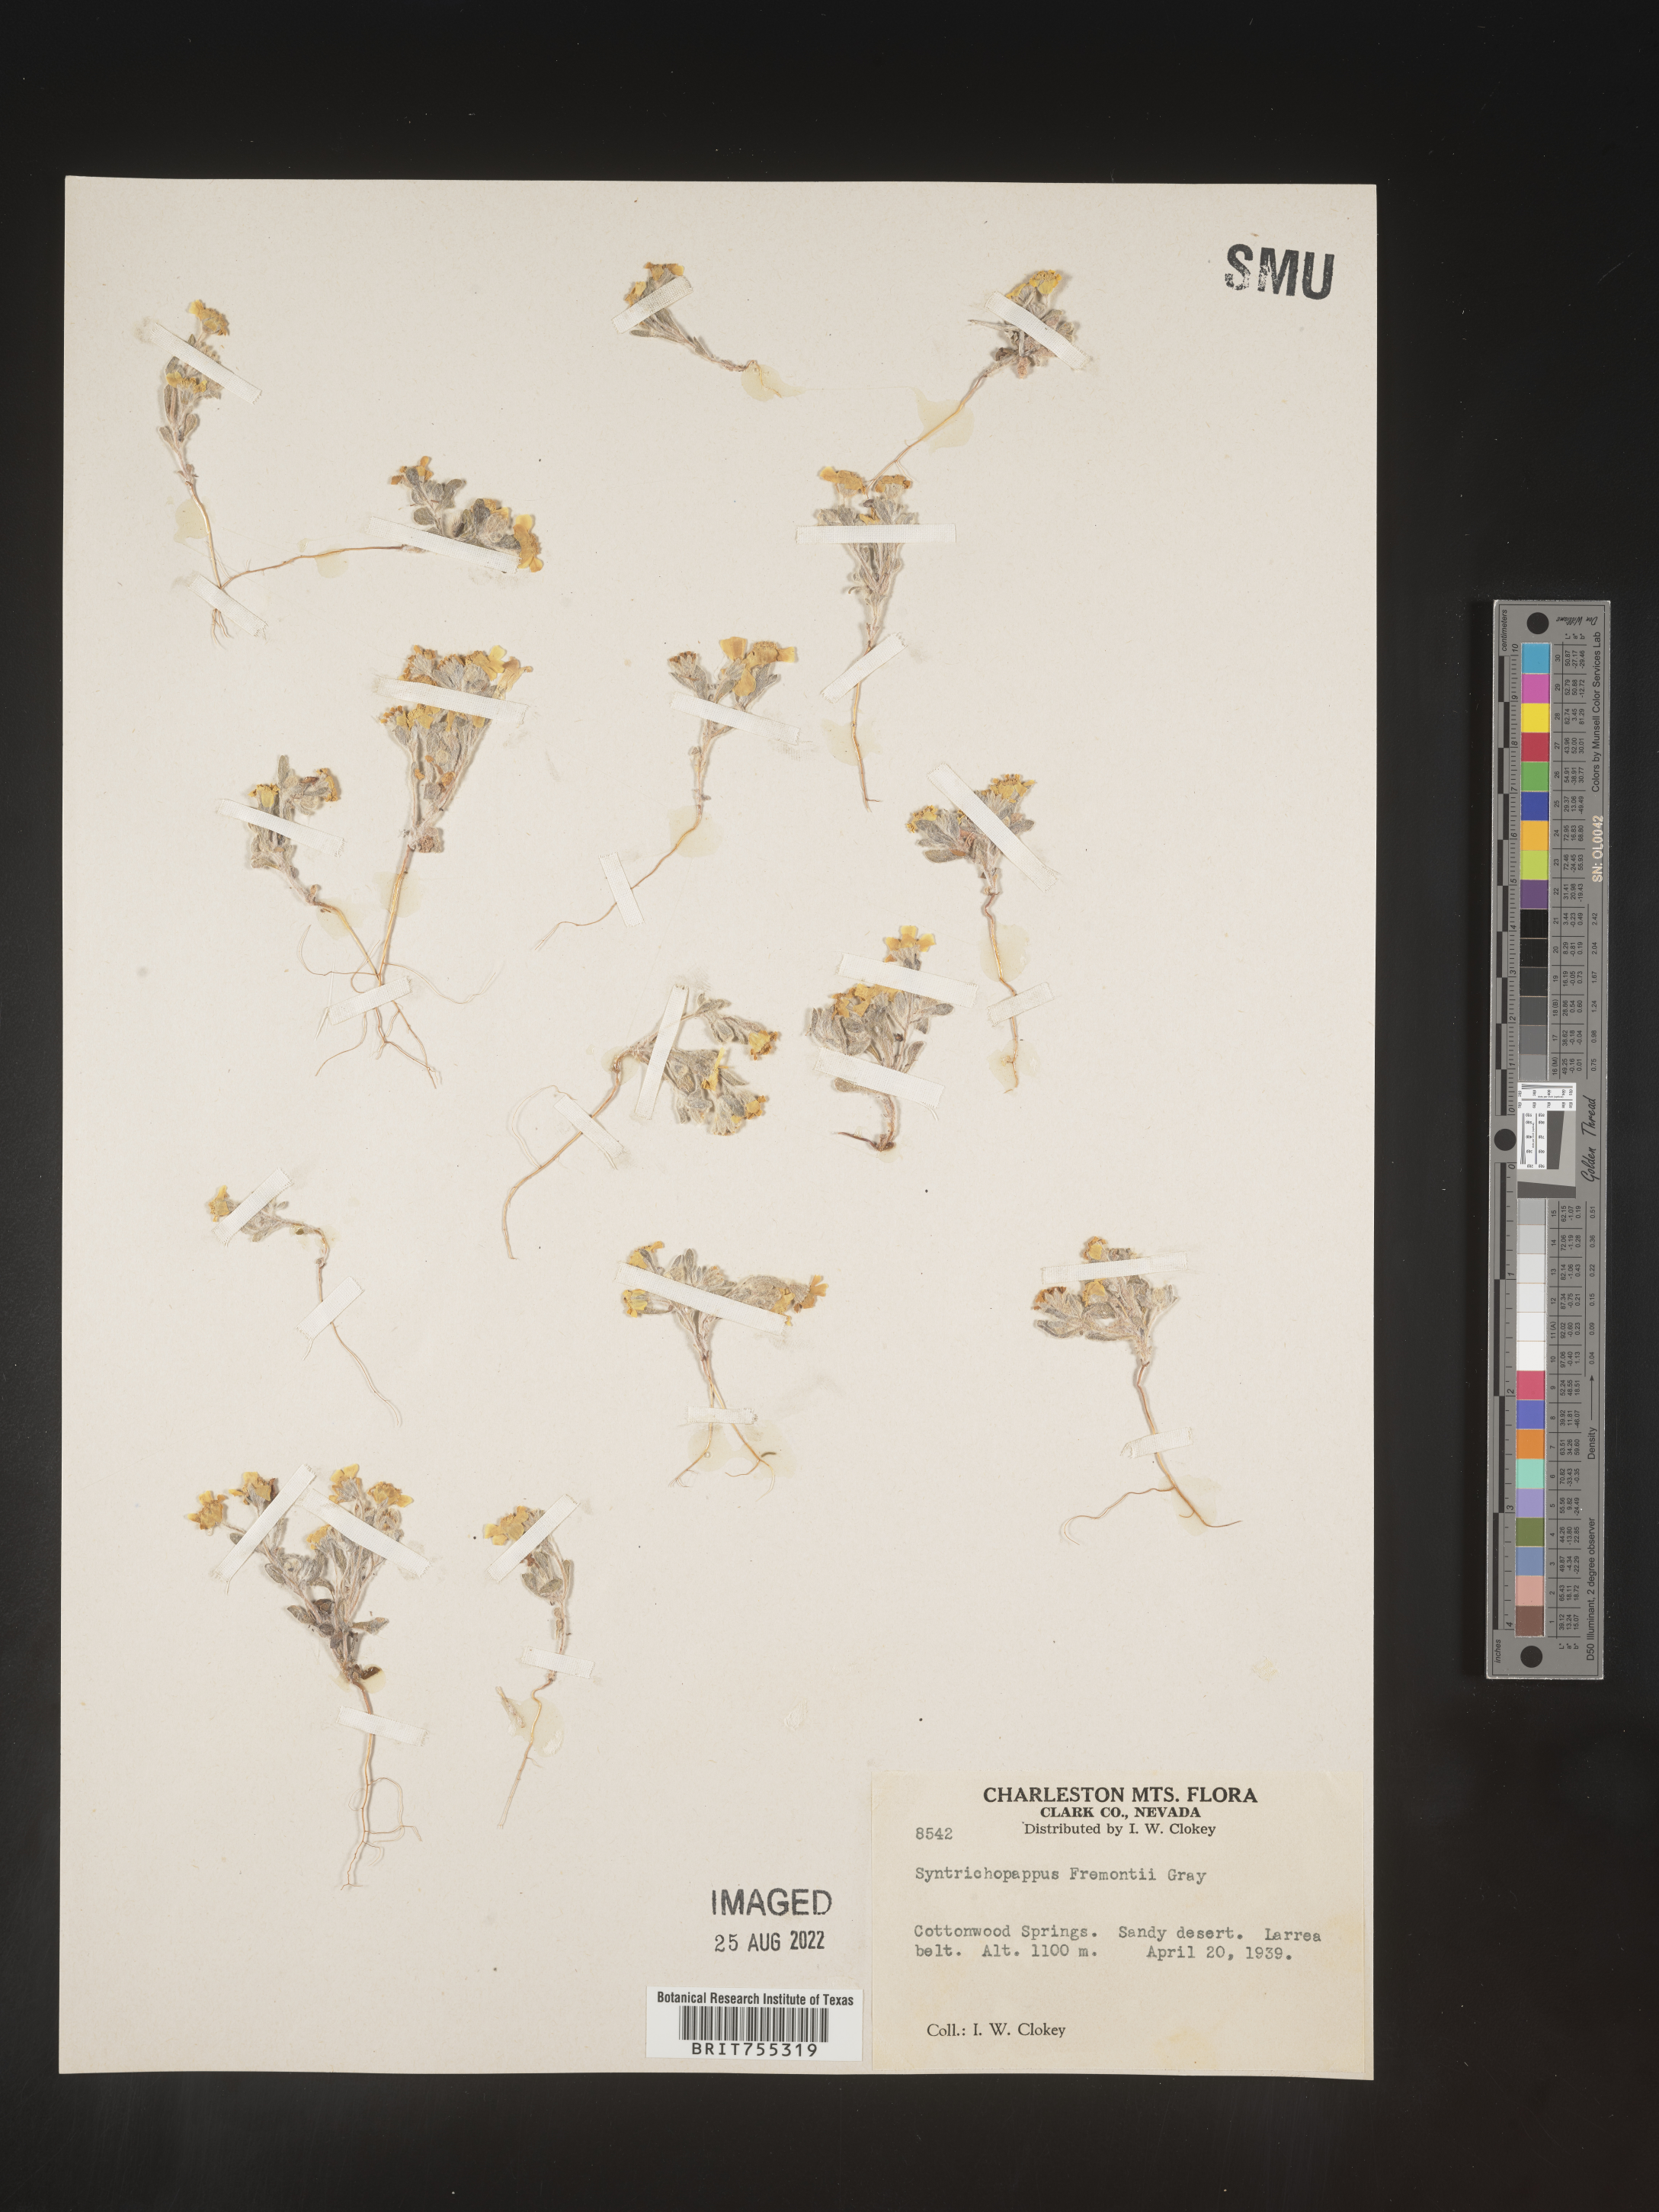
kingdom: Plantae
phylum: Tracheophyta
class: Magnoliopsida
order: Asterales
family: Asteraceae
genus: Syntrichopappus
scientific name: Syntrichopappus
